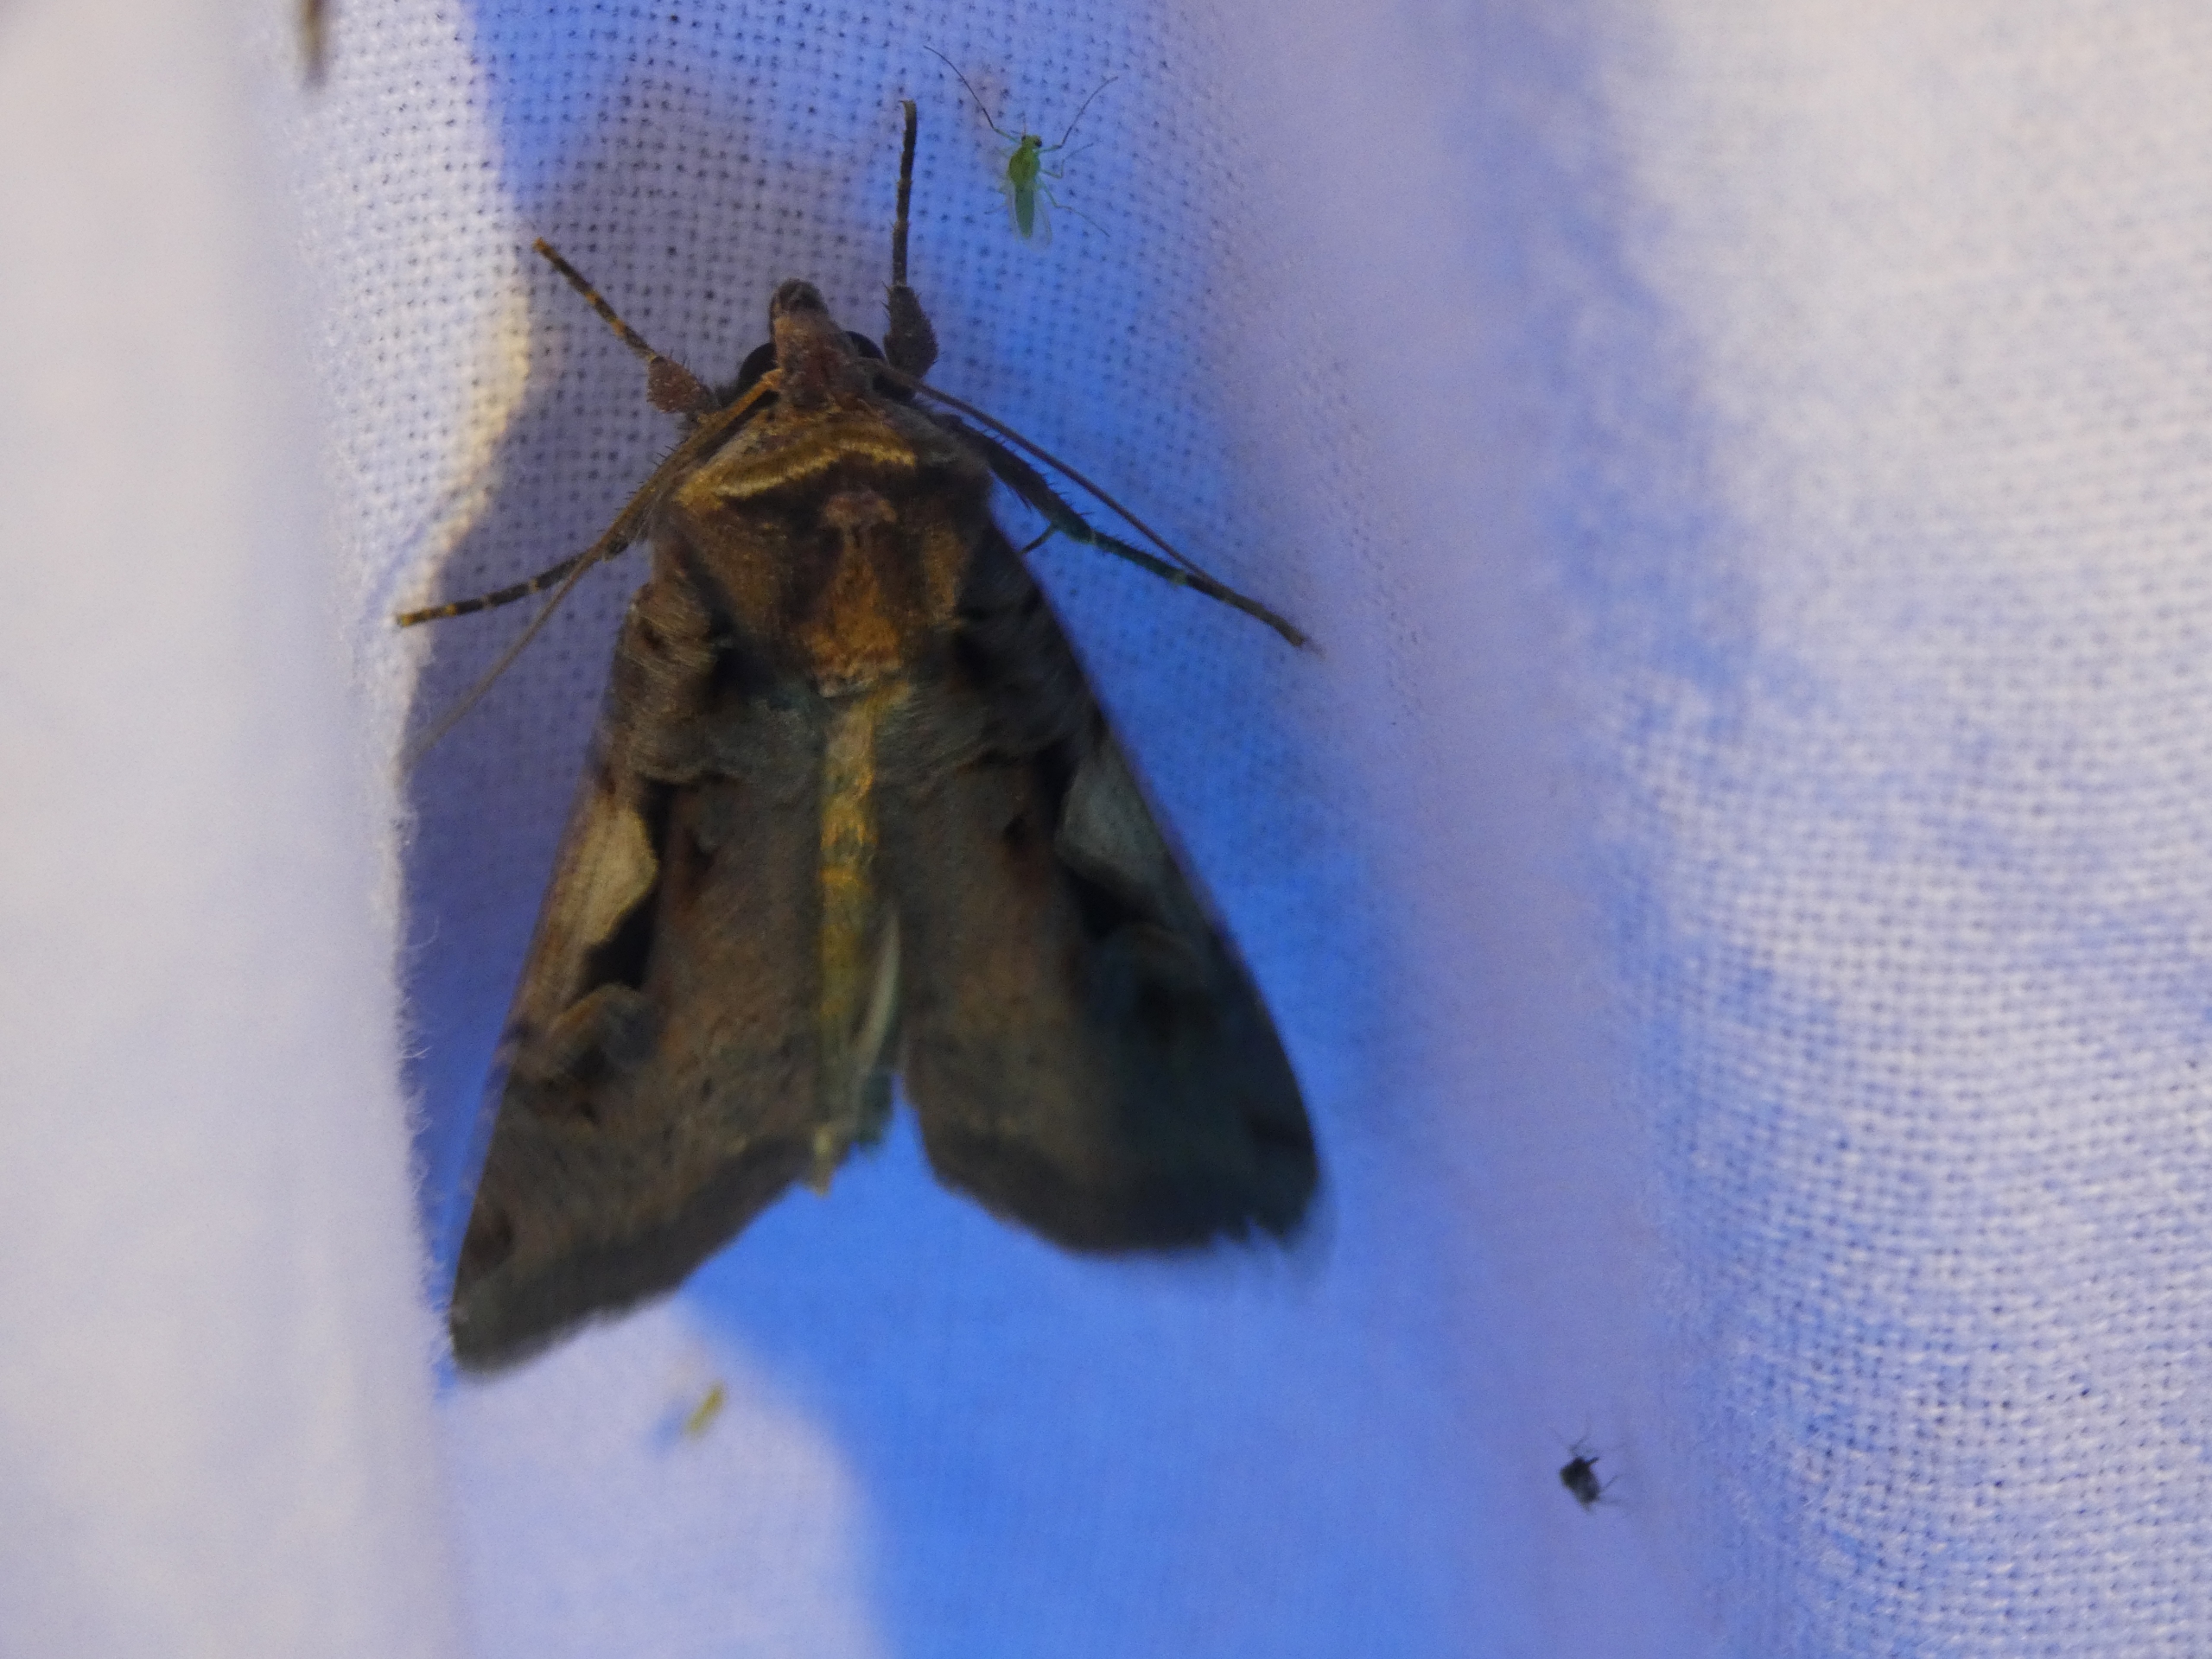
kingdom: Animalia
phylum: Arthropoda
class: Insecta
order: Lepidoptera
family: Noctuidae
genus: Xestia
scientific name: Xestia c-nigrum
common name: Det sorte c
